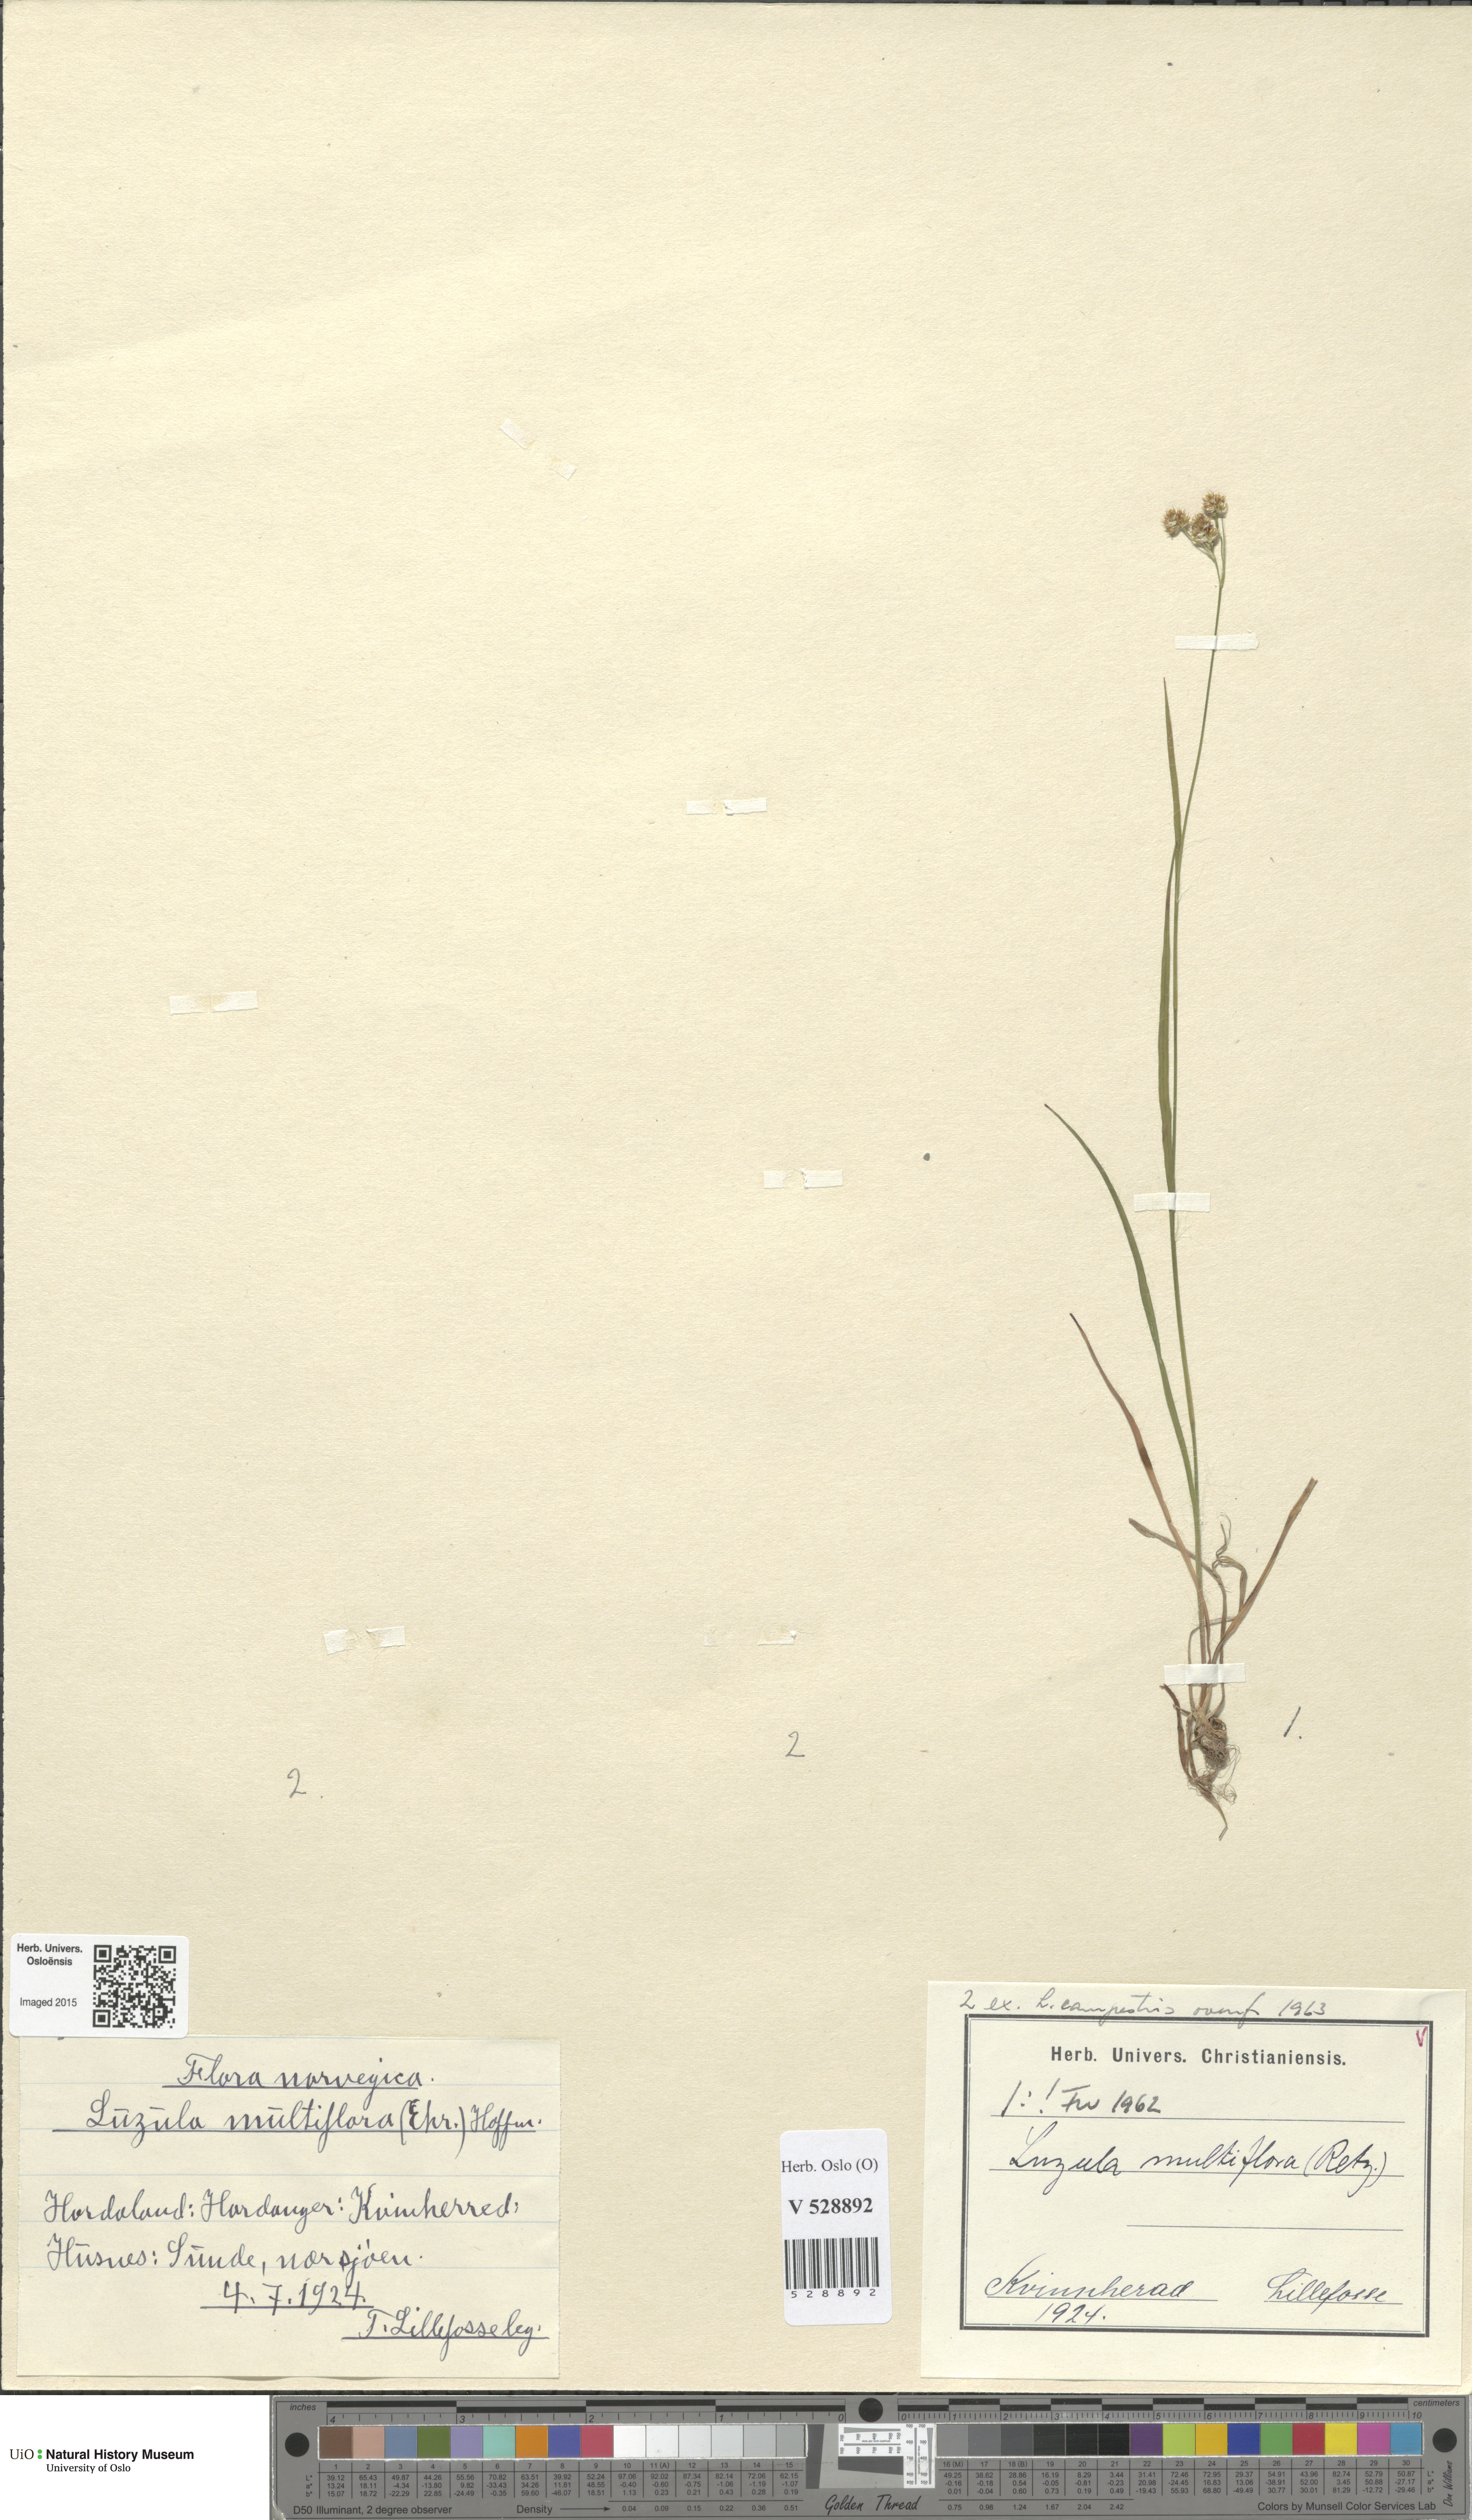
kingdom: Plantae
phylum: Tracheophyta
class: Liliopsida
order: Poales
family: Juncaceae
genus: Luzula
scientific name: Luzula multiflora
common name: Heath wood-rush
